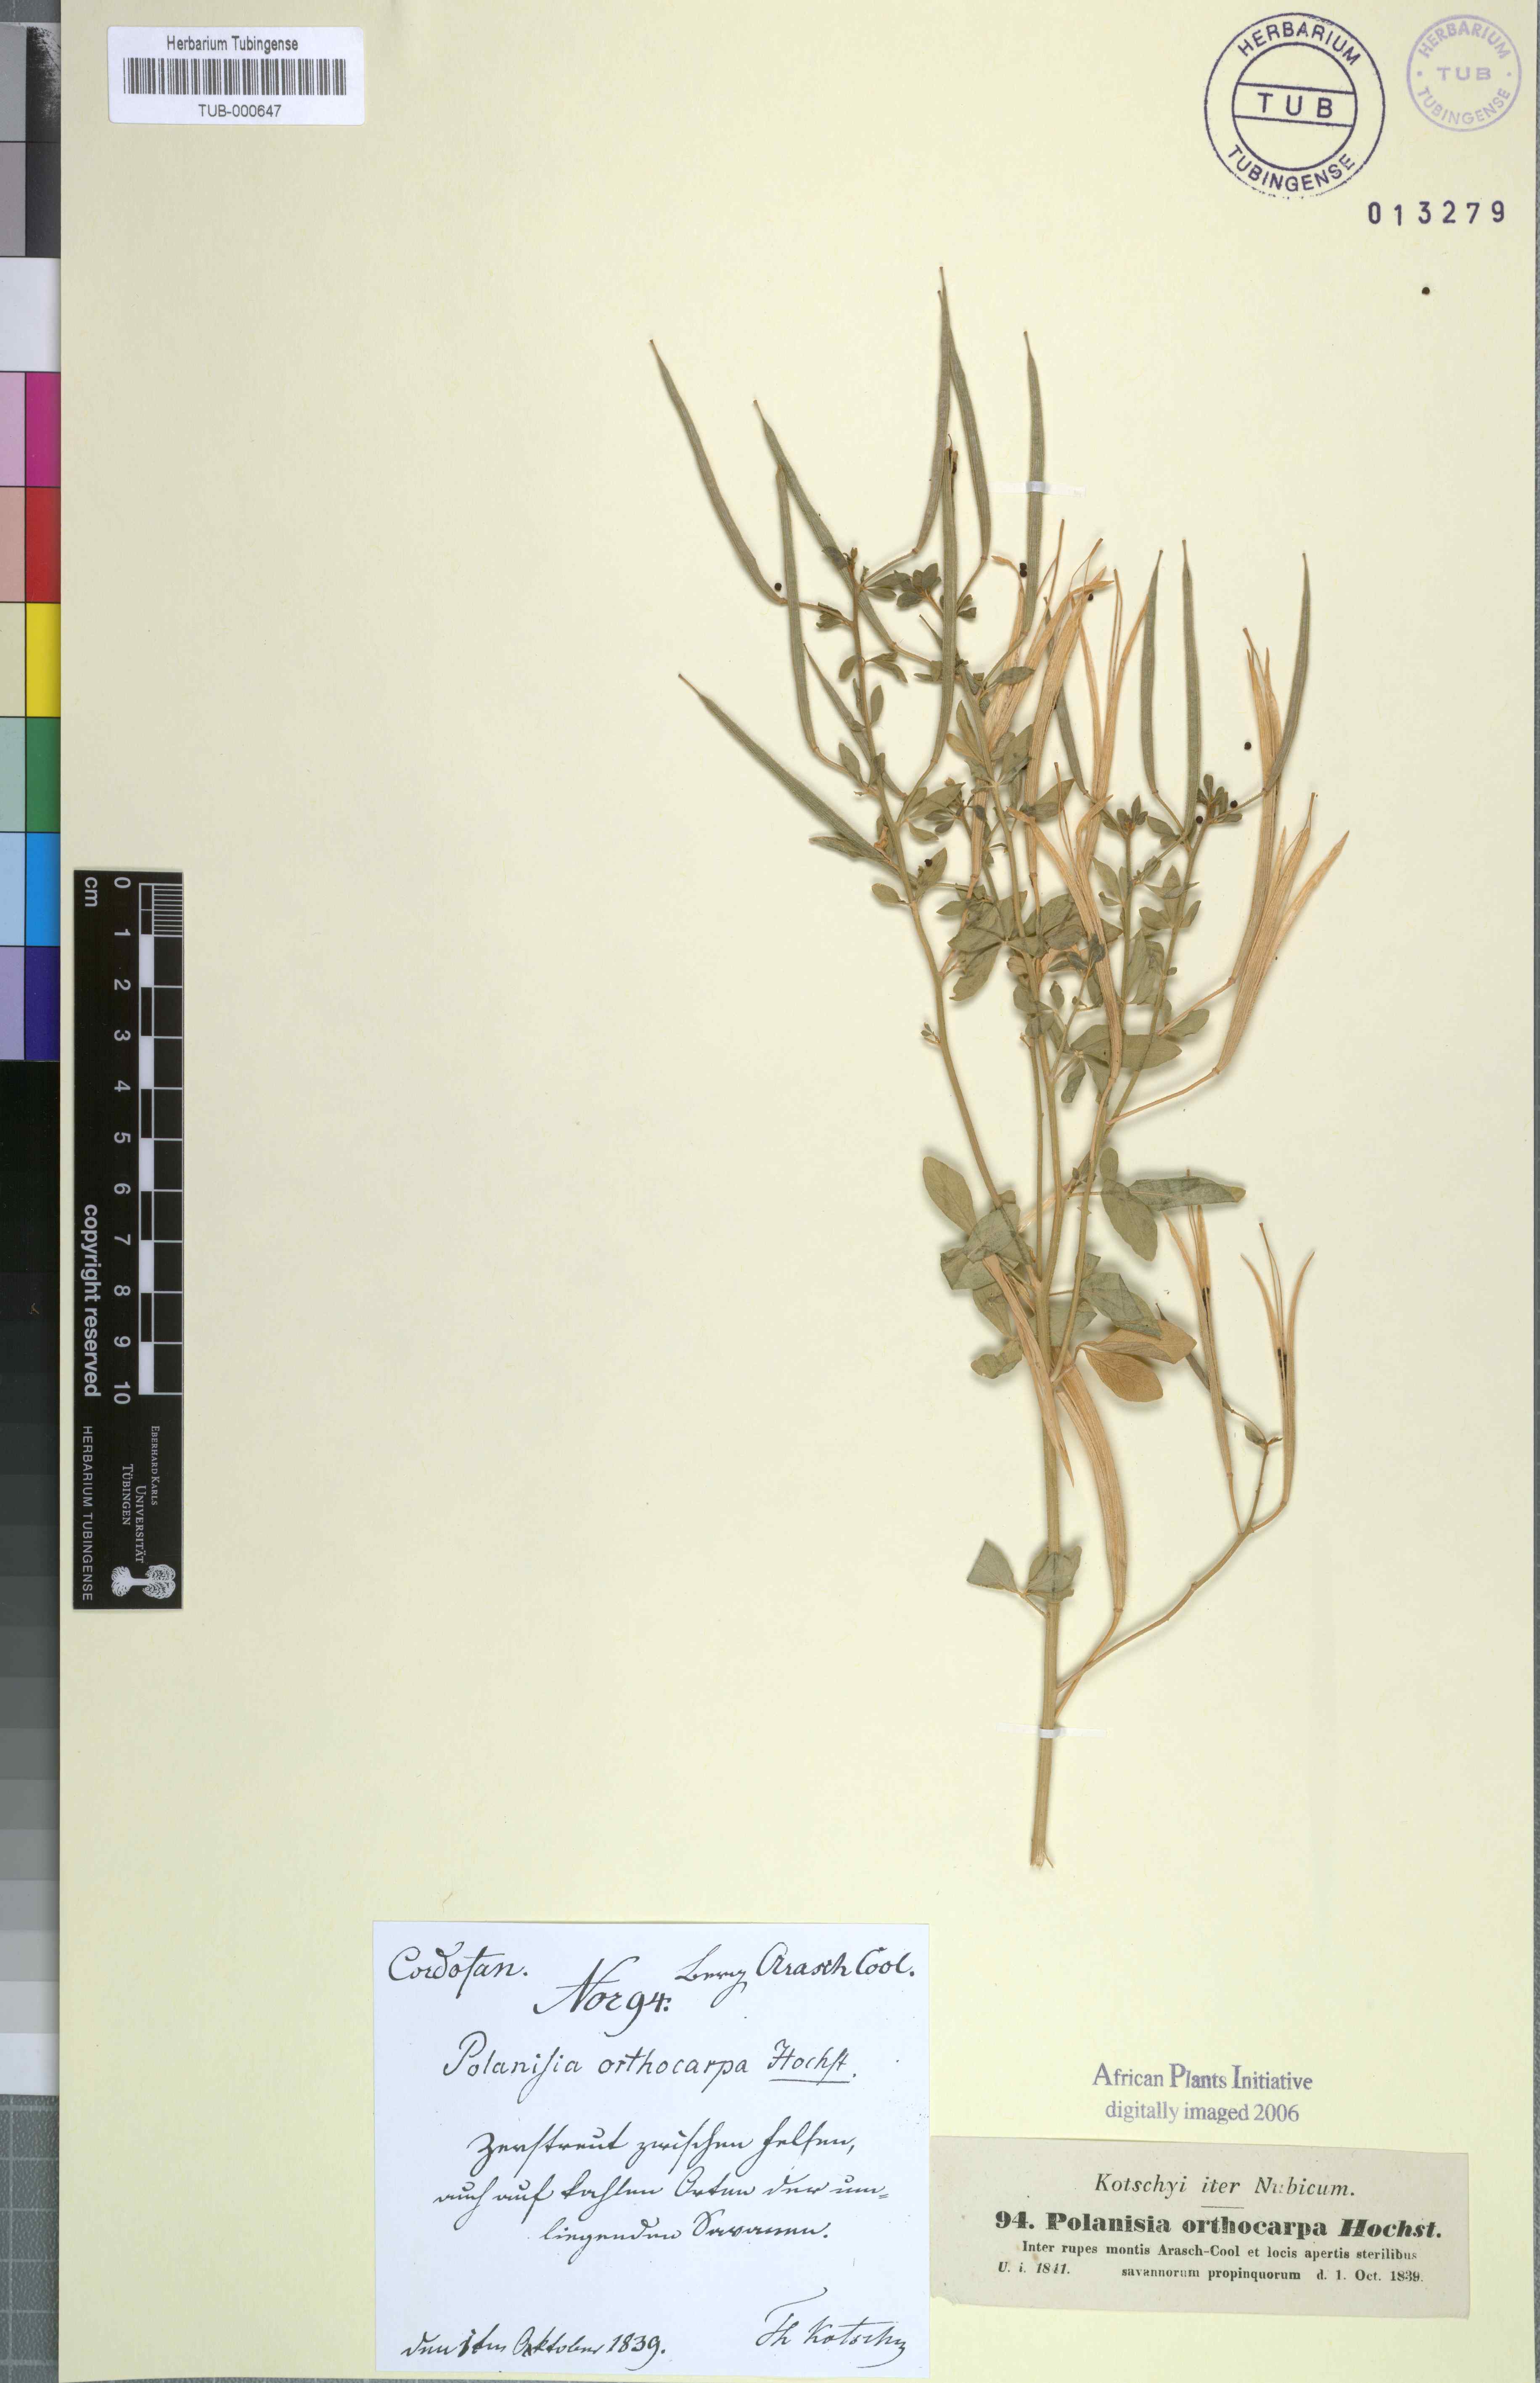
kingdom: Plantae
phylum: Tracheophyta
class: Magnoliopsida
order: Brassicales
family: Cleomaceae
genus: Arivela
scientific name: Arivela viscosa
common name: Asian spiderflower
